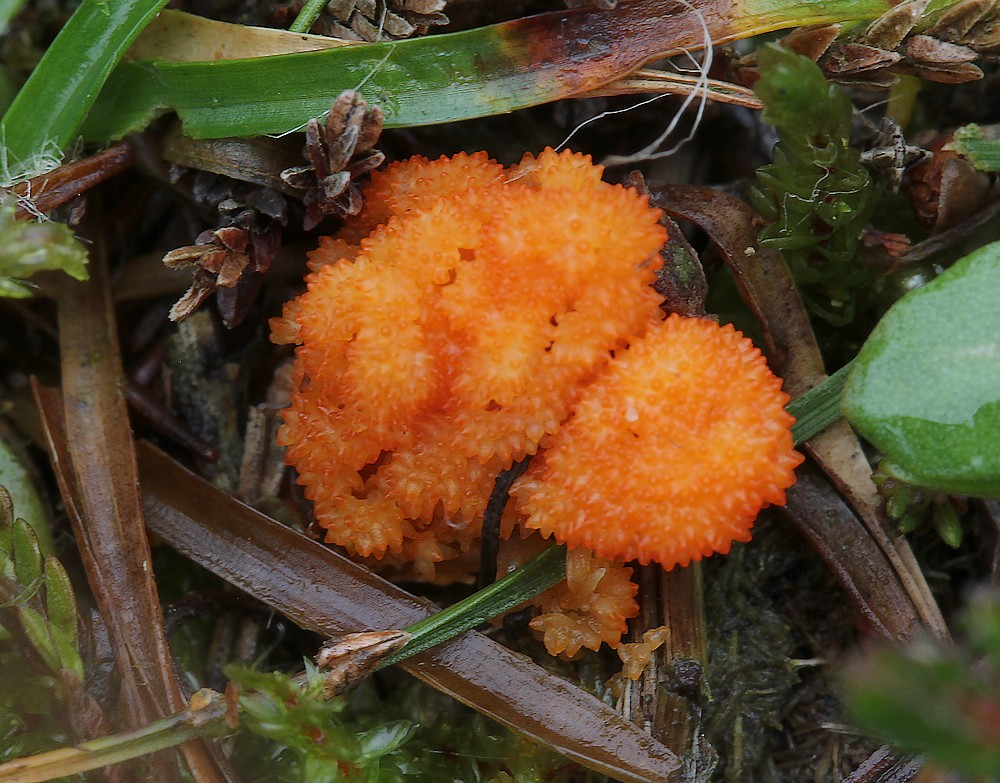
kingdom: Fungi
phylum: Ascomycota
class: Sordariomycetes
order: Hypocreales
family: Cordycipitaceae
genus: Cordyceps
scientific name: Cordyceps militaris
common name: puppe-snyltekølle
